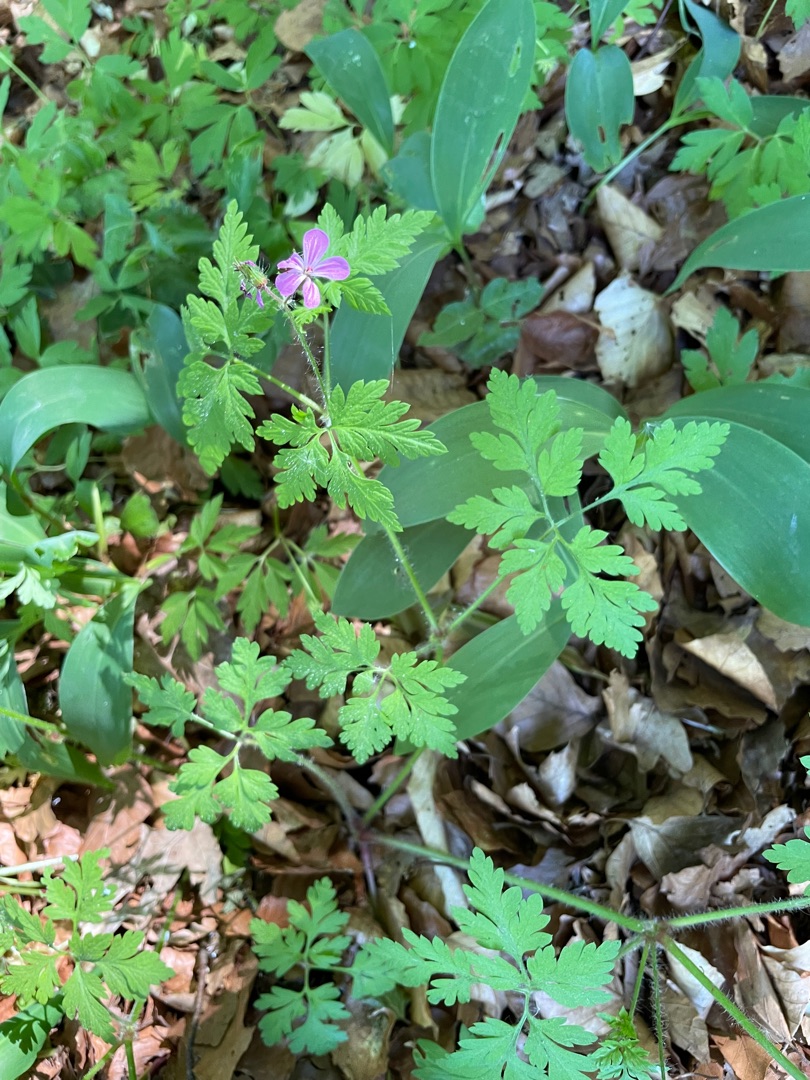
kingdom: Plantae
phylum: Tracheophyta
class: Magnoliopsida
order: Geraniales
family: Geraniaceae
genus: Geranium
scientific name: Geranium robertianum
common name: Stinkende storkenæb
